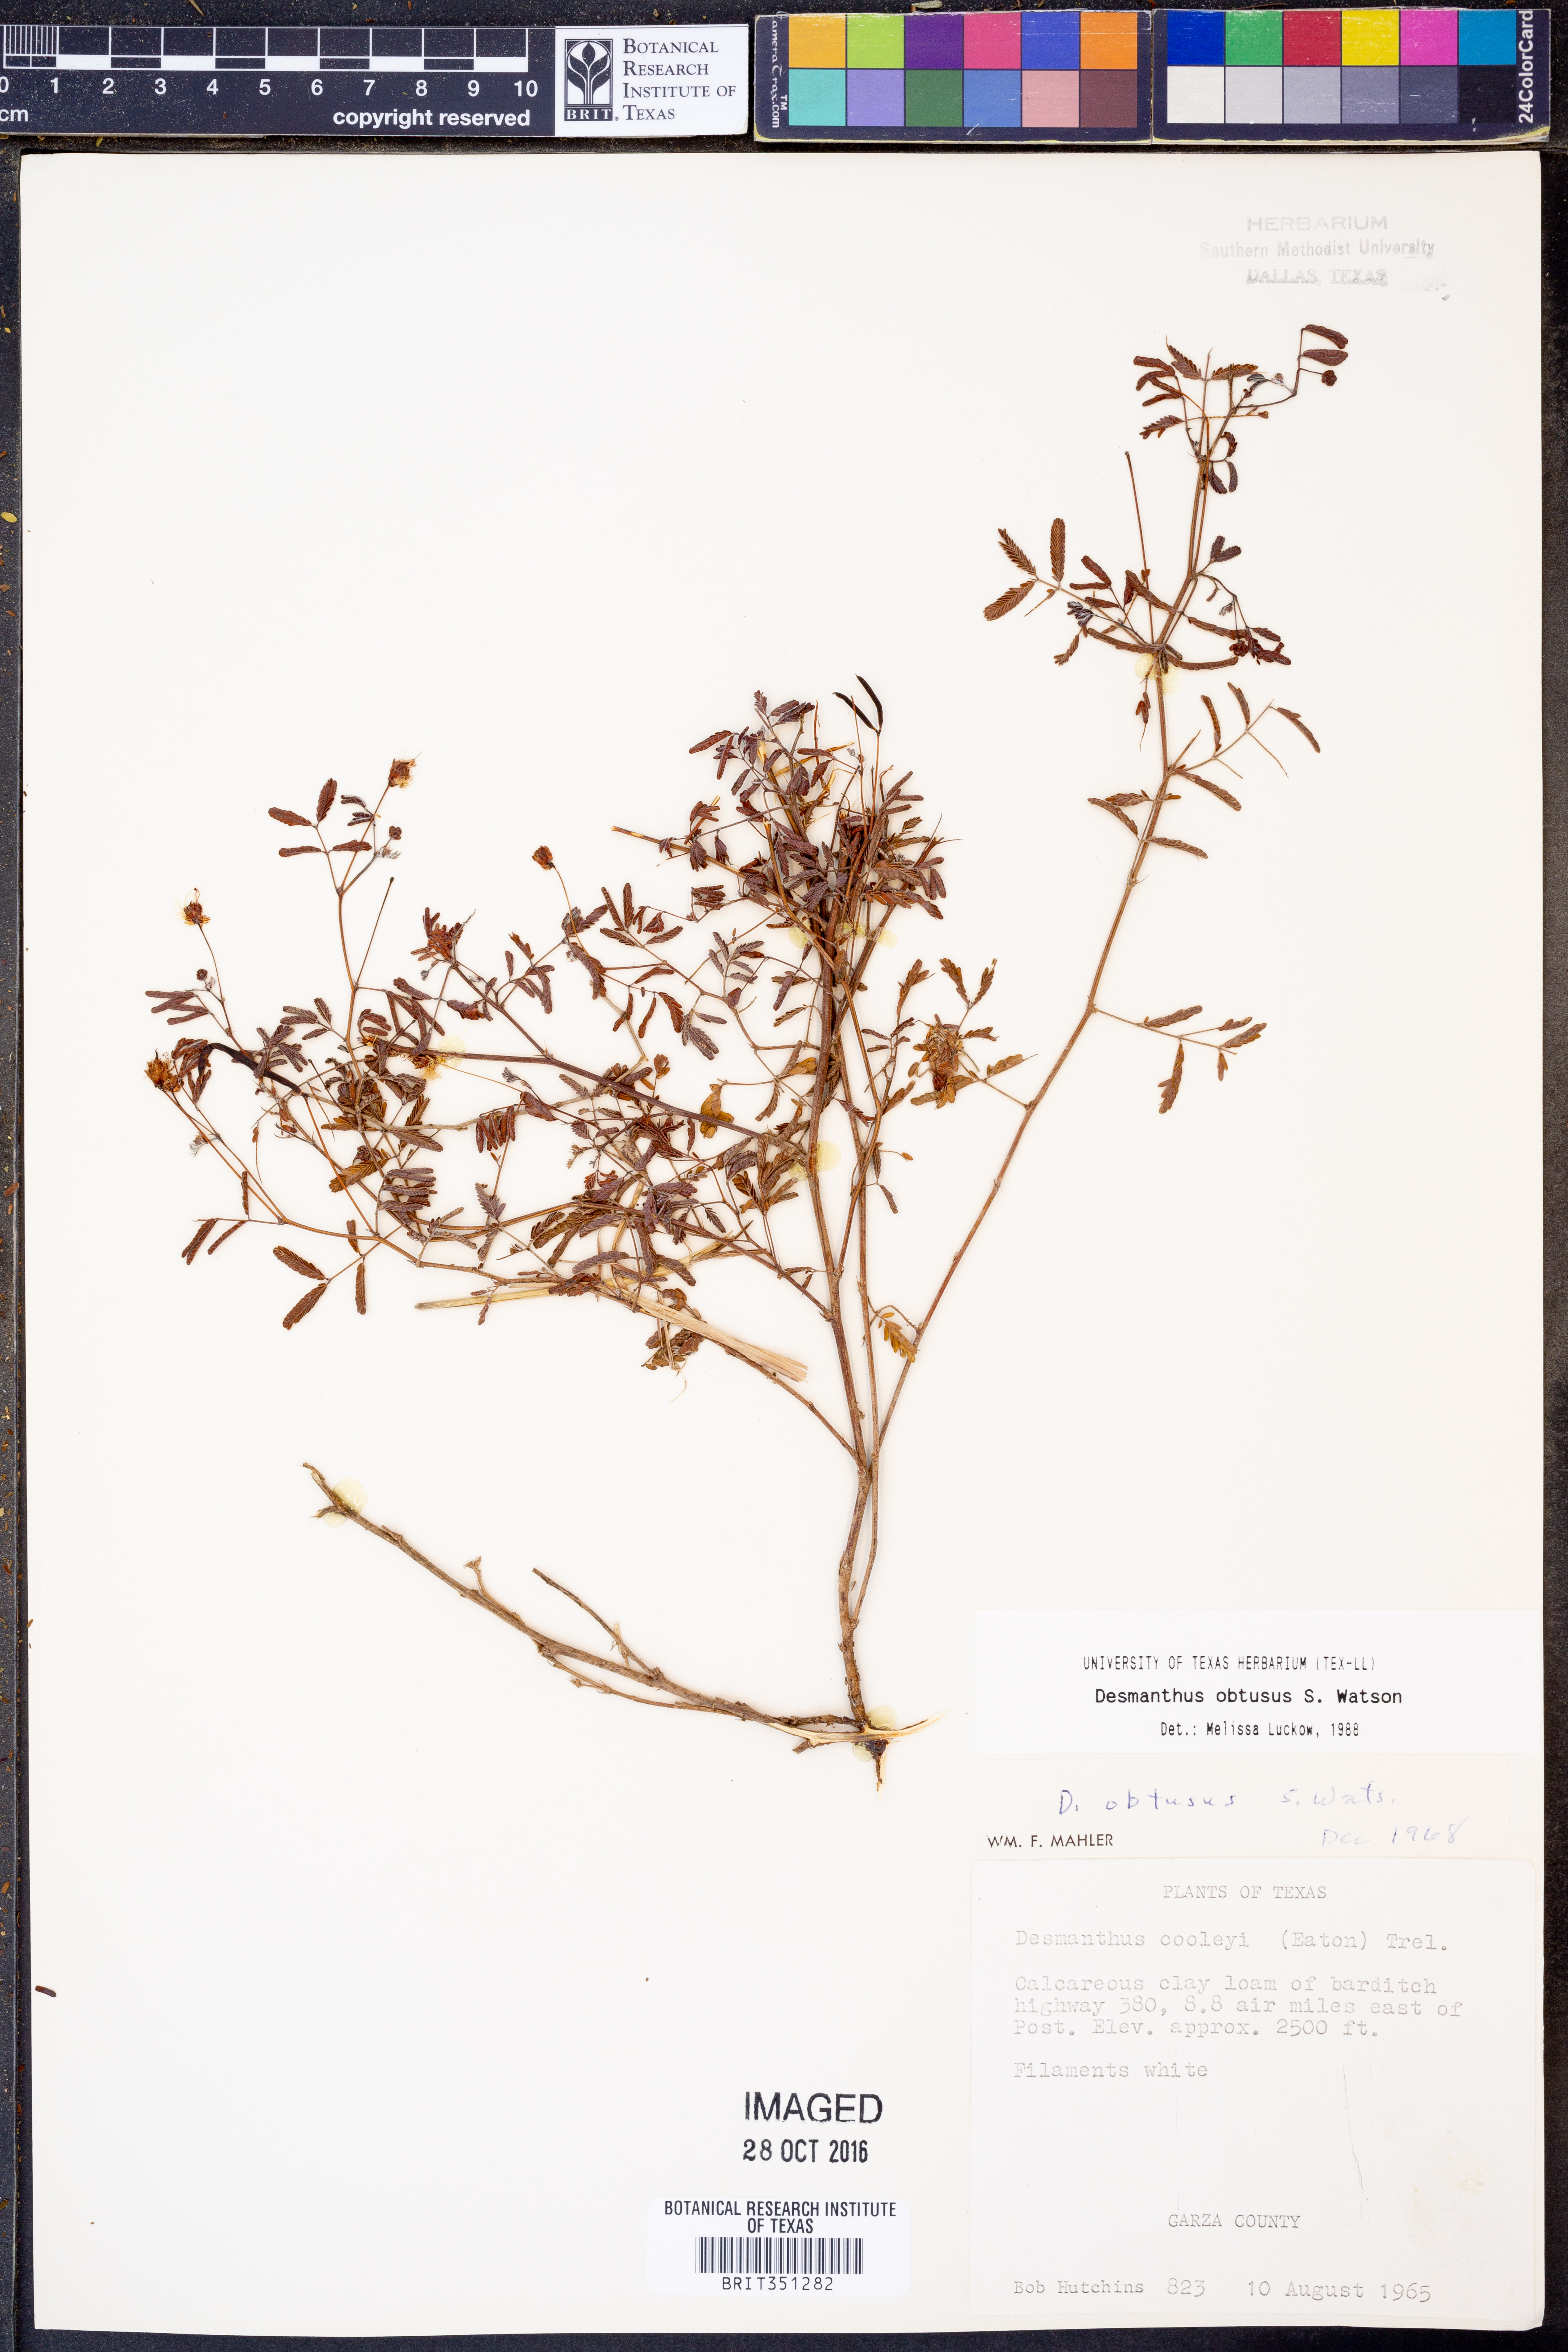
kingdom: Plantae
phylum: Tracheophyta
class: Magnoliopsida
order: Fabales
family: Fabaceae
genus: Desmanthus
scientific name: Desmanthus obtusus
